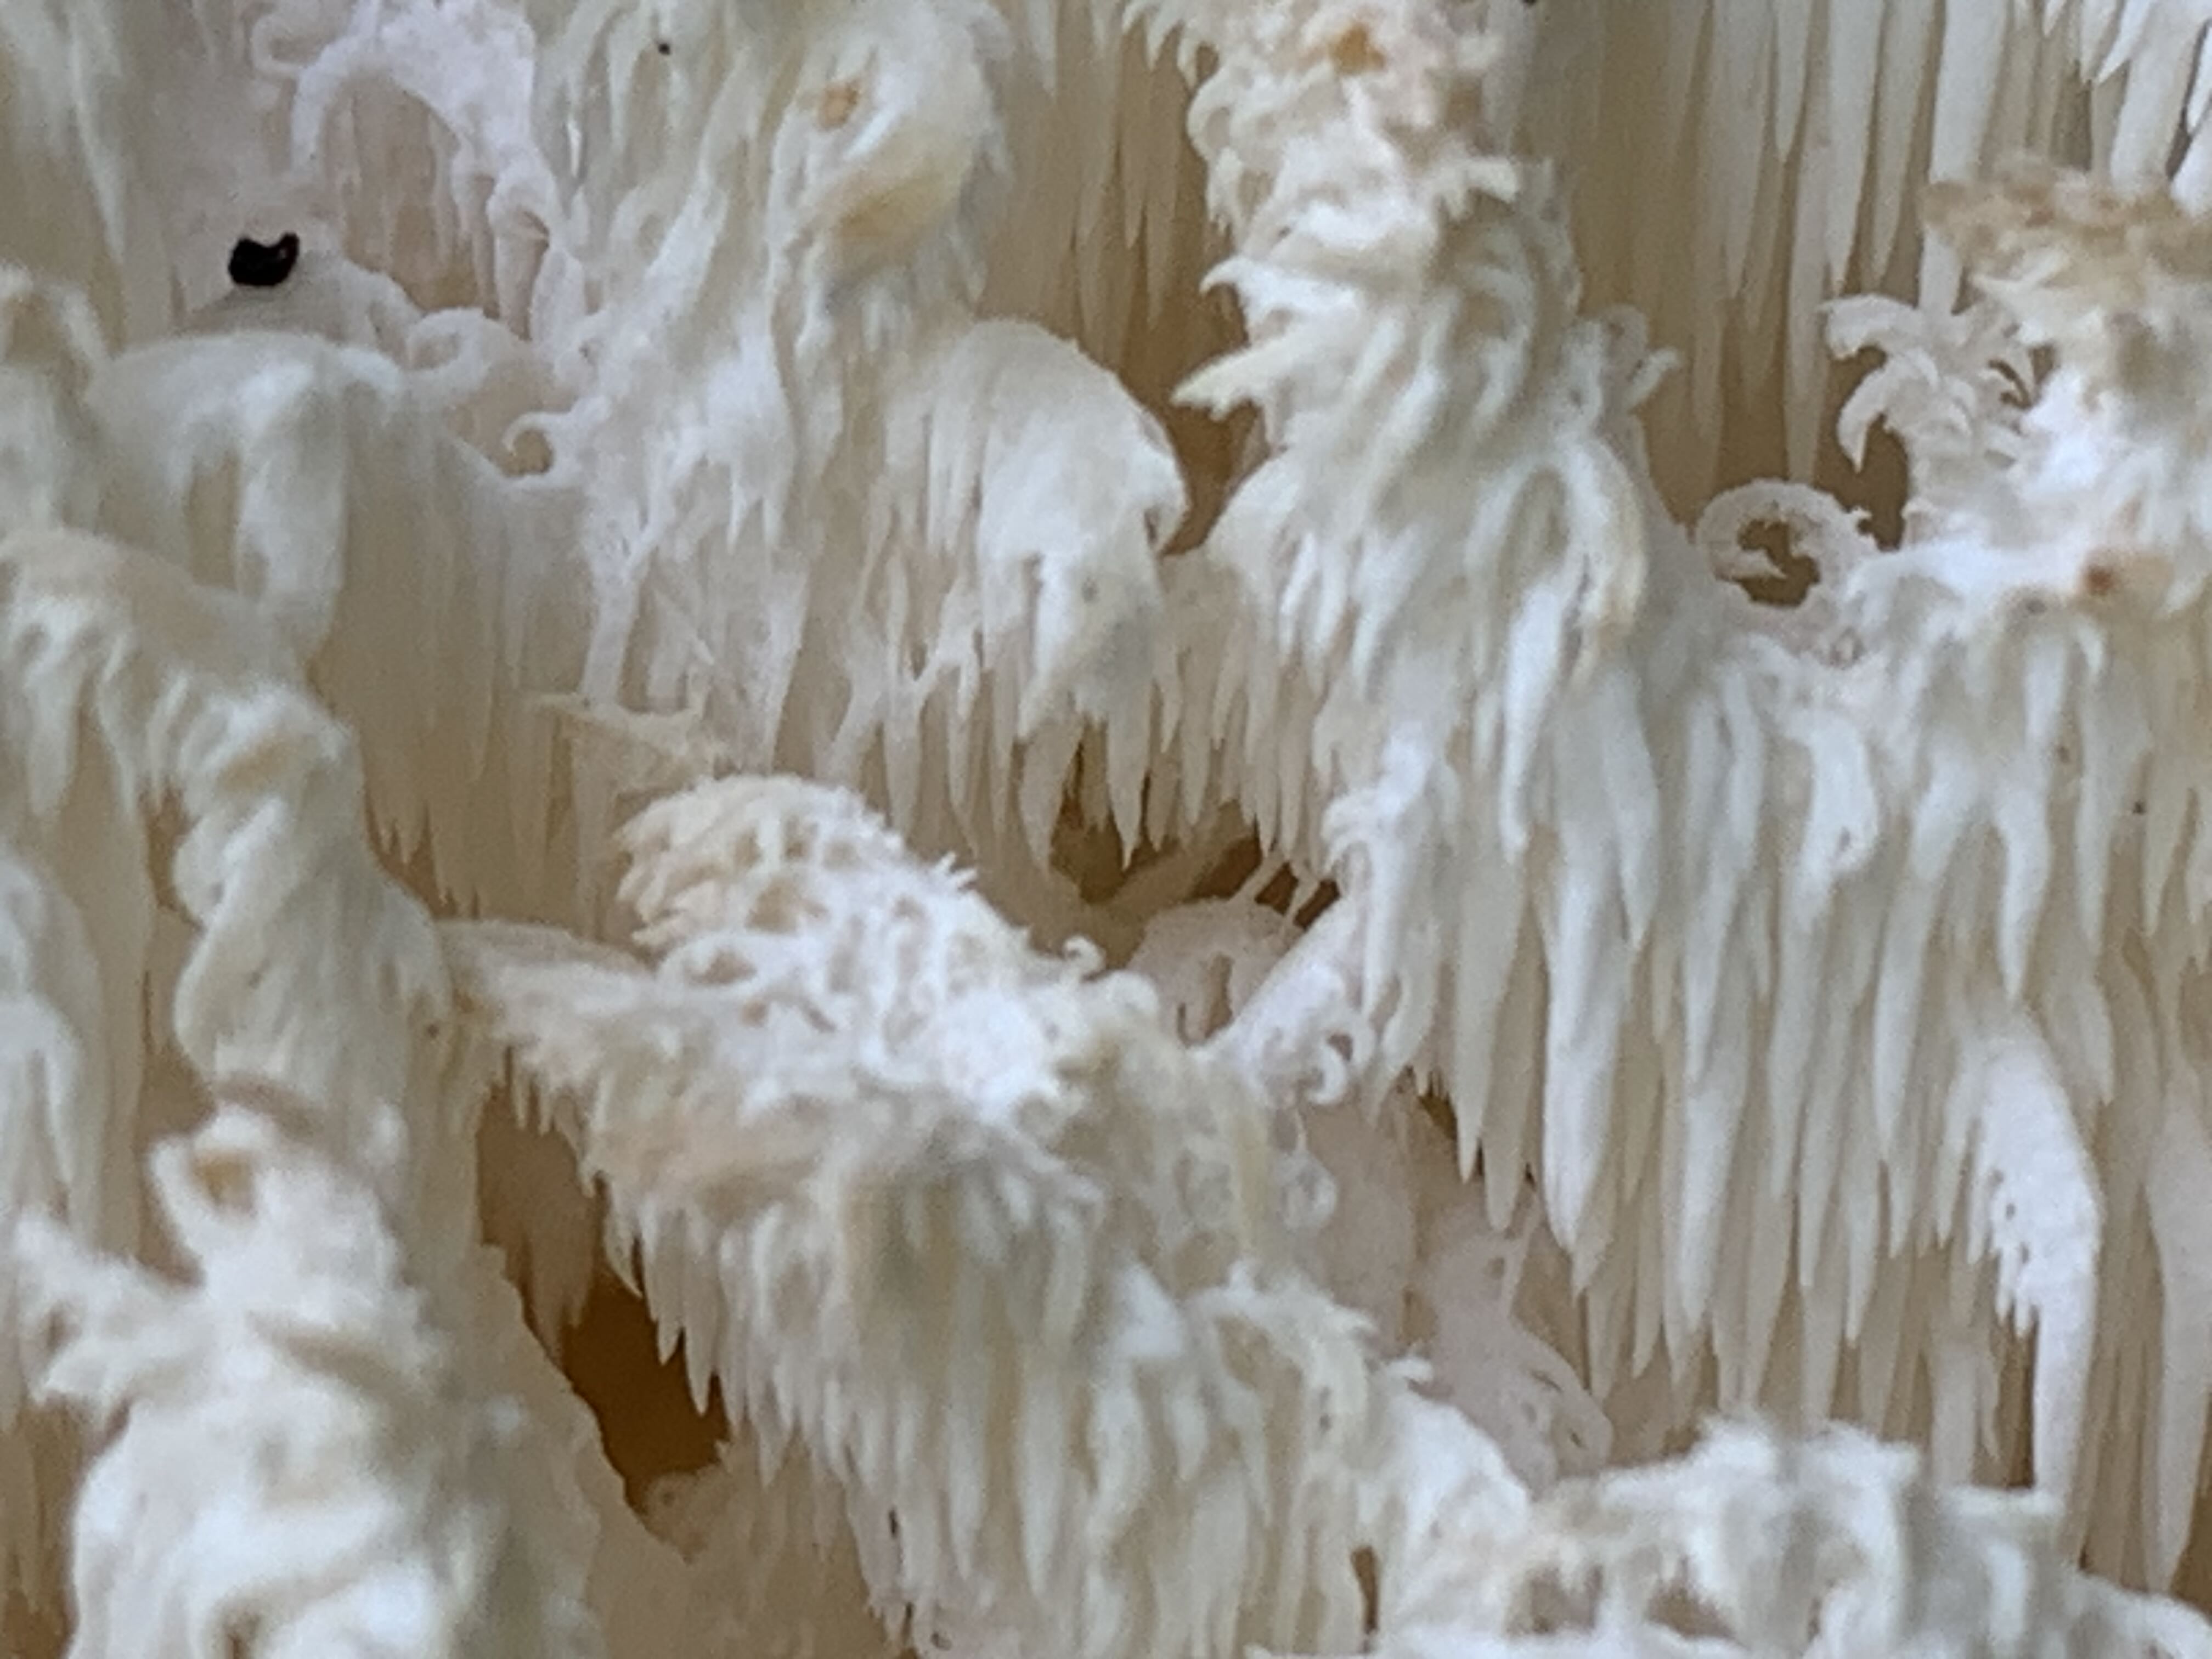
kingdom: Fungi
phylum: Basidiomycota
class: Agaricomycetes
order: Russulales
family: Hericiaceae
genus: Hericium
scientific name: Hericium coralloides
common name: koralpigsvamp
